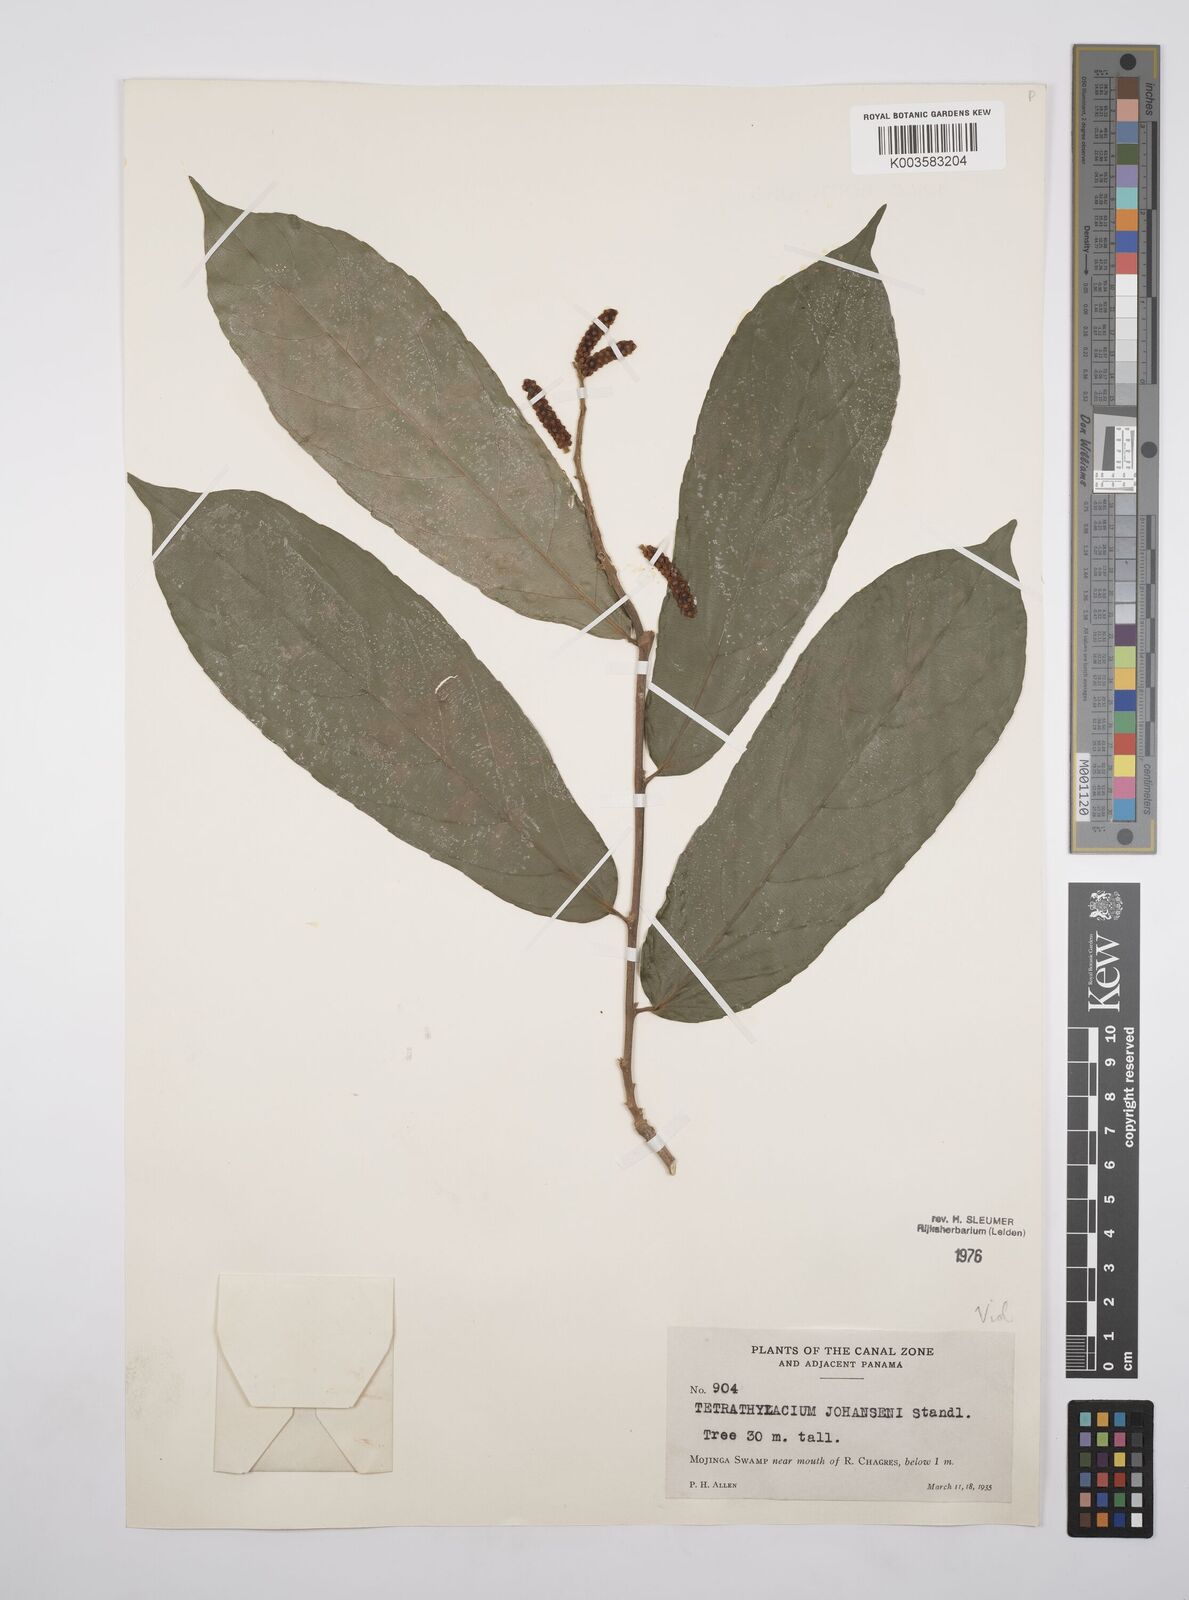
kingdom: Plantae
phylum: Tracheophyta
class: Magnoliopsida
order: Malpighiales
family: Salicaceae
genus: Tetrathylacium
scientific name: Tetrathylacium johansenii
